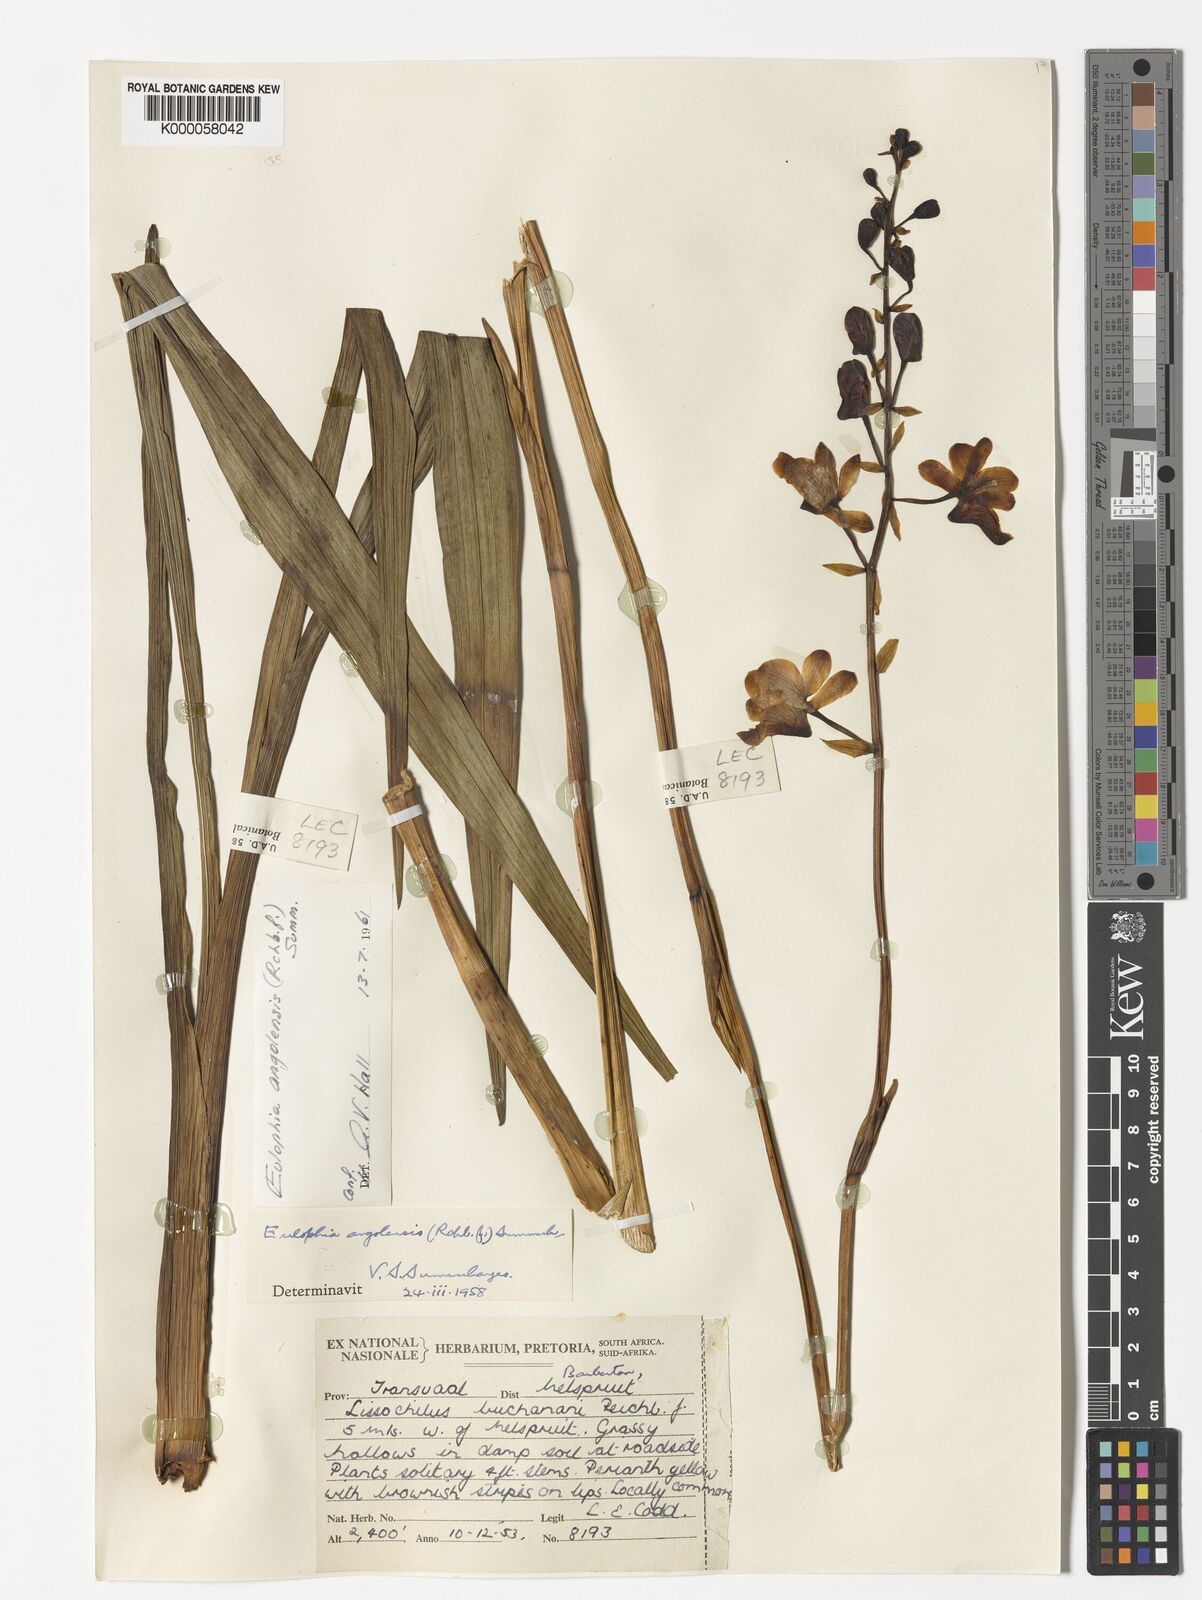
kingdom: Plantae
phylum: Tracheophyta
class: Liliopsida
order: Asparagales
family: Orchidaceae
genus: Eulophia
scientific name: Eulophia angolensis
